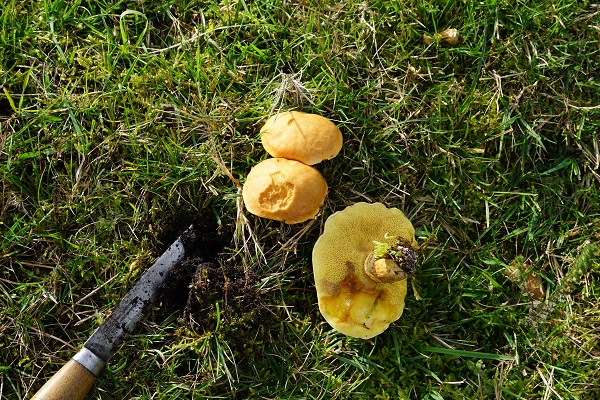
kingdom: Fungi
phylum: Basidiomycota
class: Agaricomycetes
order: Boletales
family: Suillaceae
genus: Suillus
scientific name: Suillus grevillei
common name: lærke-slimrørhat
